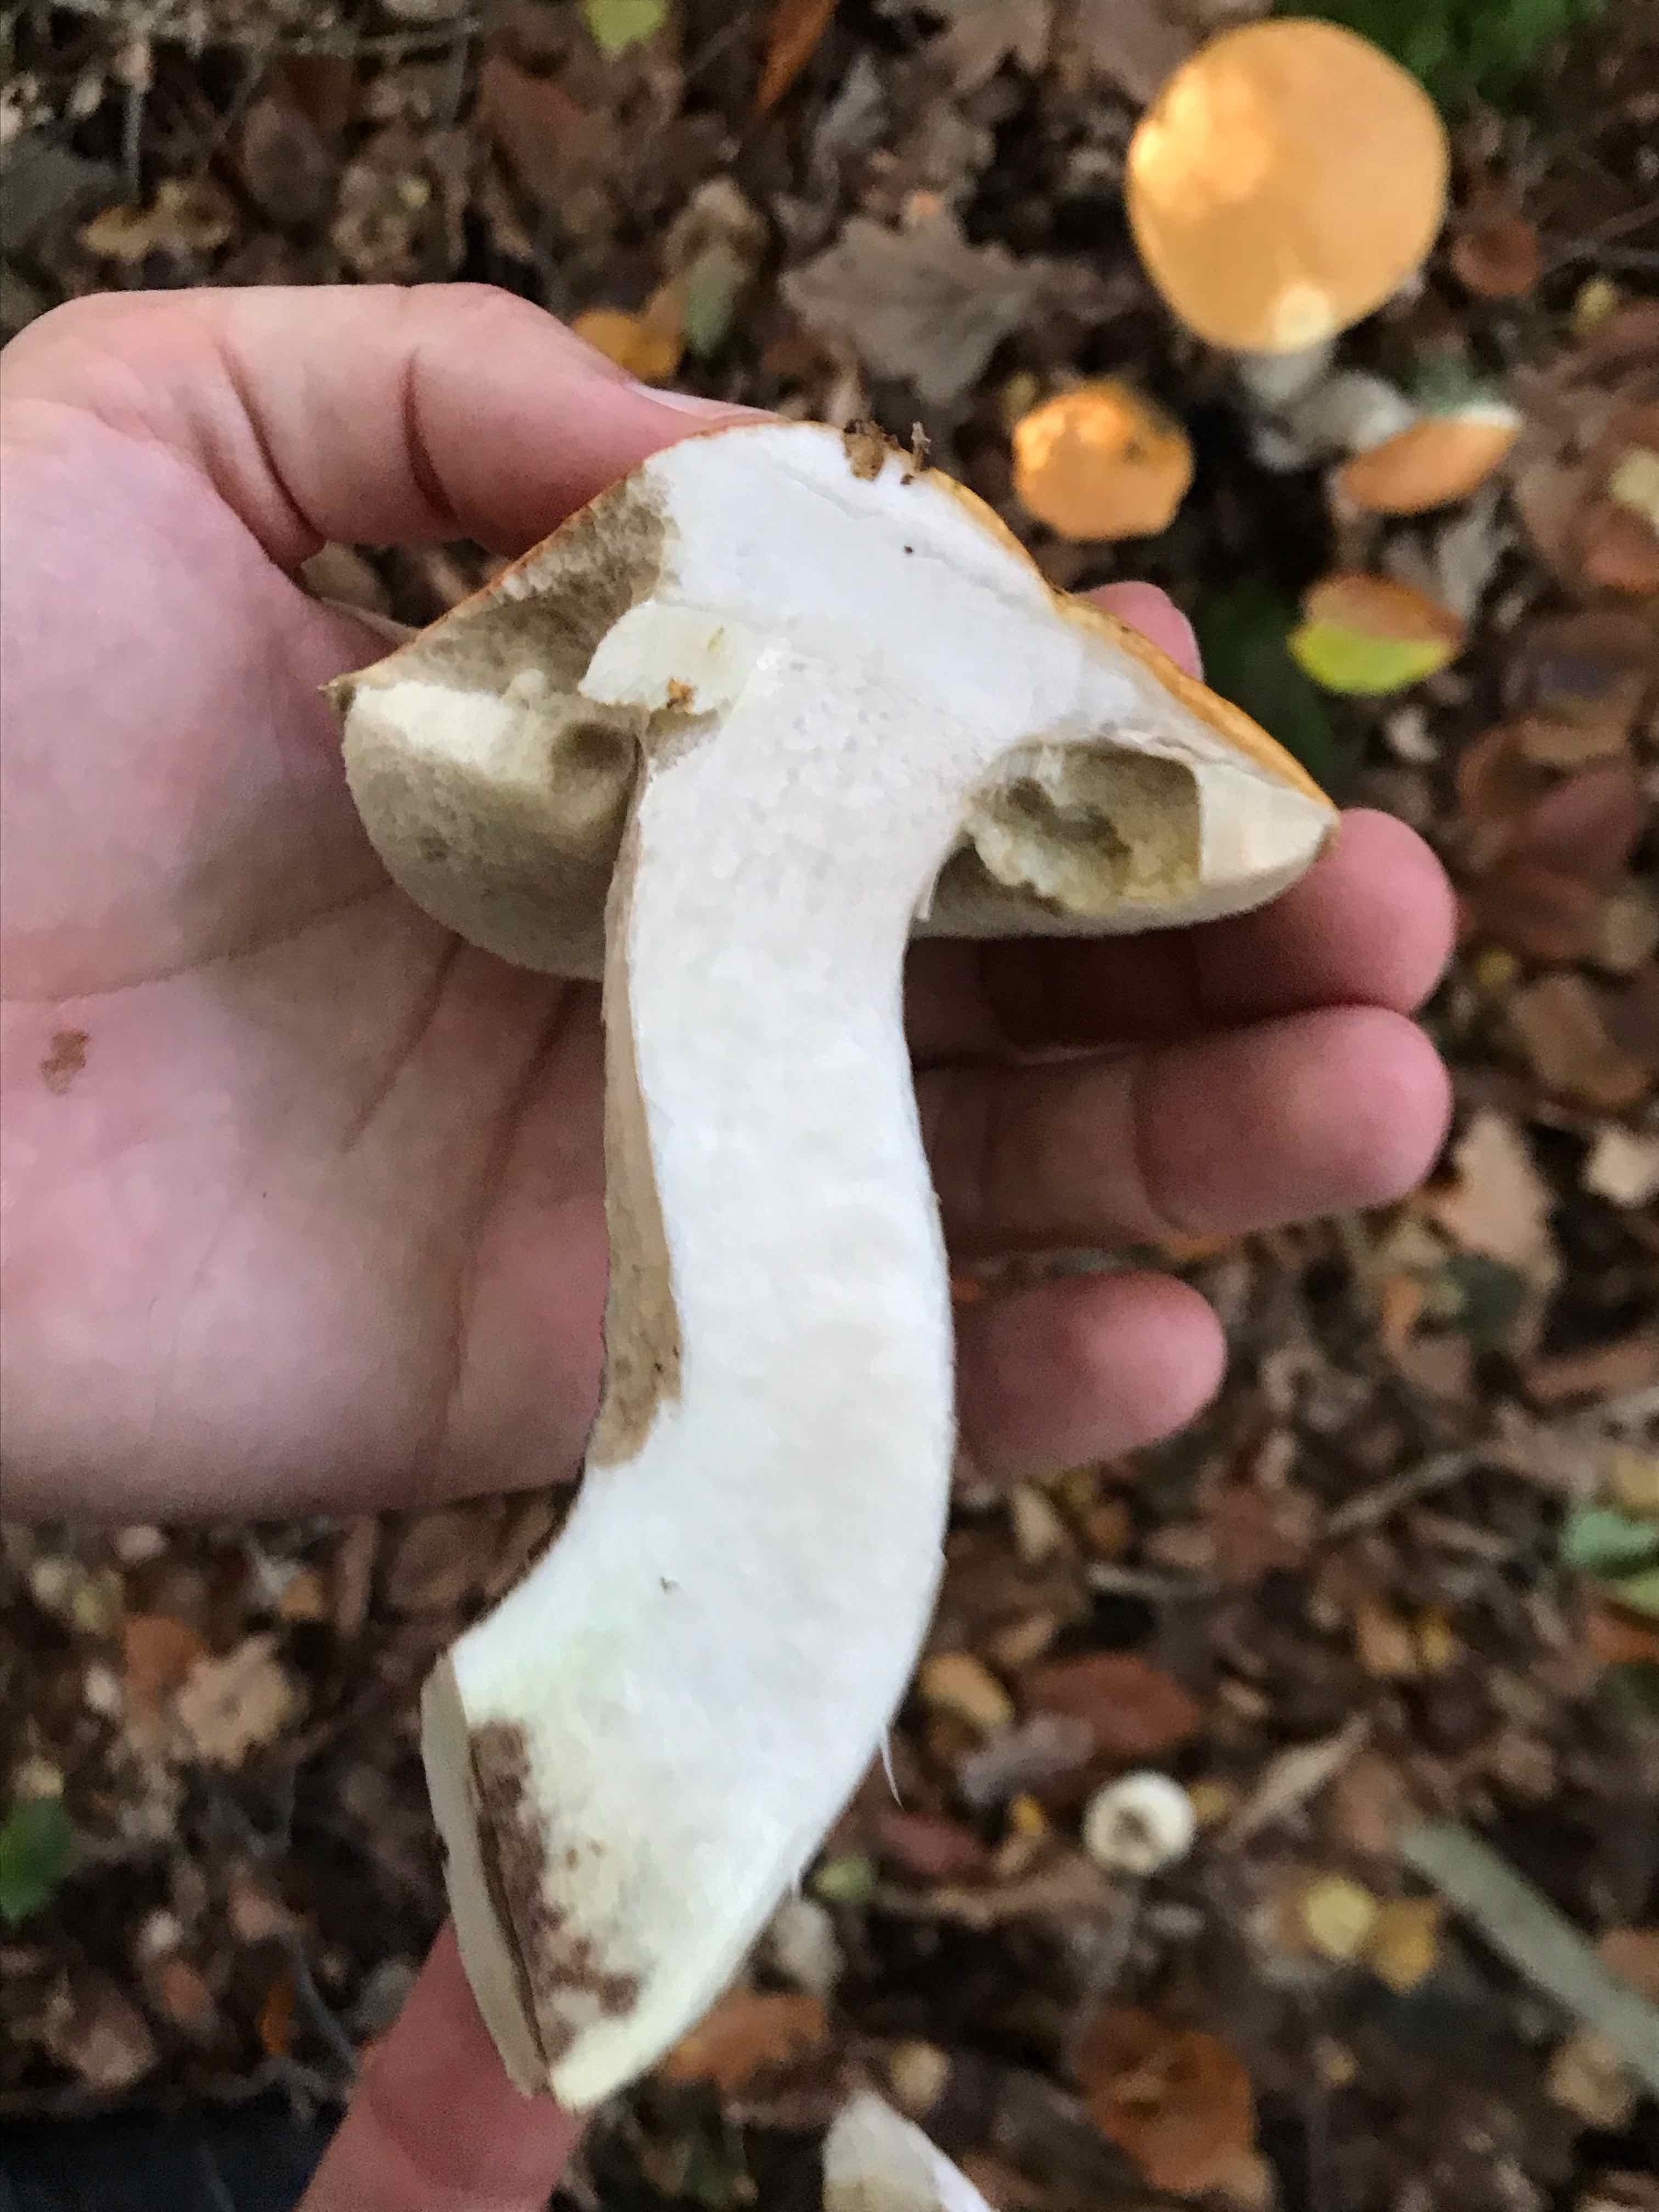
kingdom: Fungi
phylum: Basidiomycota
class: Agaricomycetes
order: Boletales
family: Boletaceae
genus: Leccinum
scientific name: Leccinum versipelle
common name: orange skælrørhat
